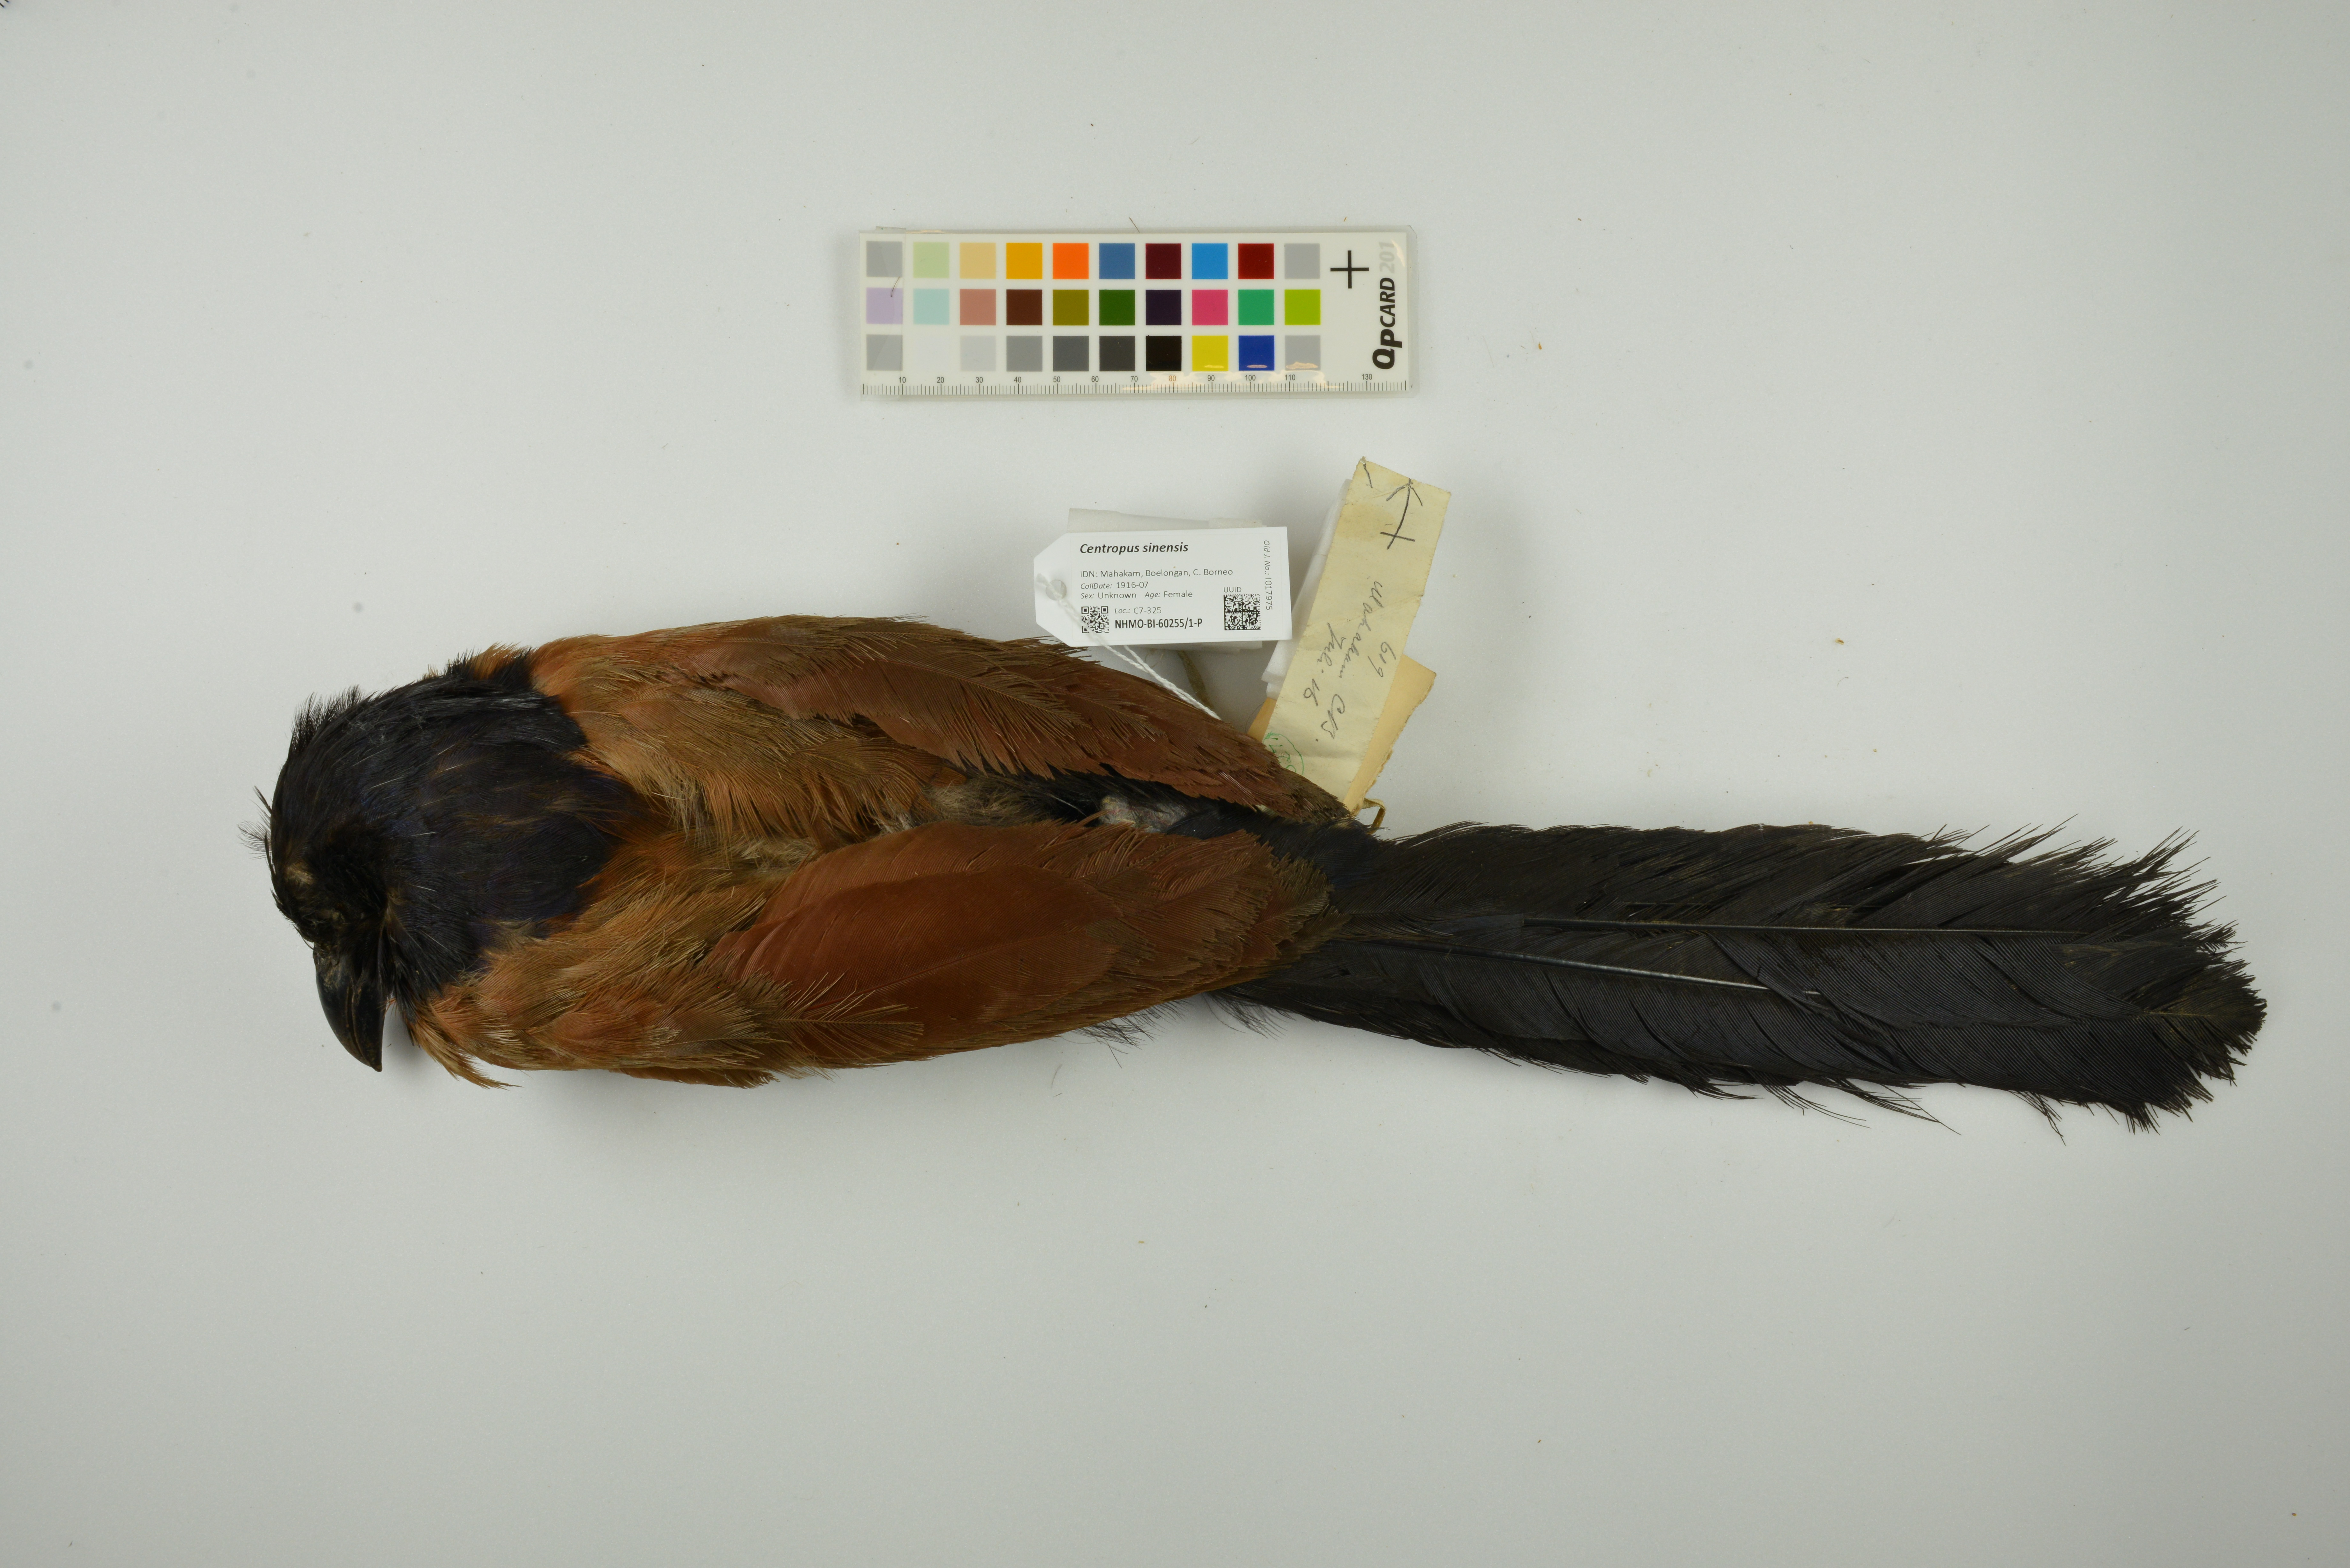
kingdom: Animalia
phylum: Chordata
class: Aves
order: Cuculiformes
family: Cuculidae
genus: Centropus
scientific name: Centropus sinensis
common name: Greater coucal
